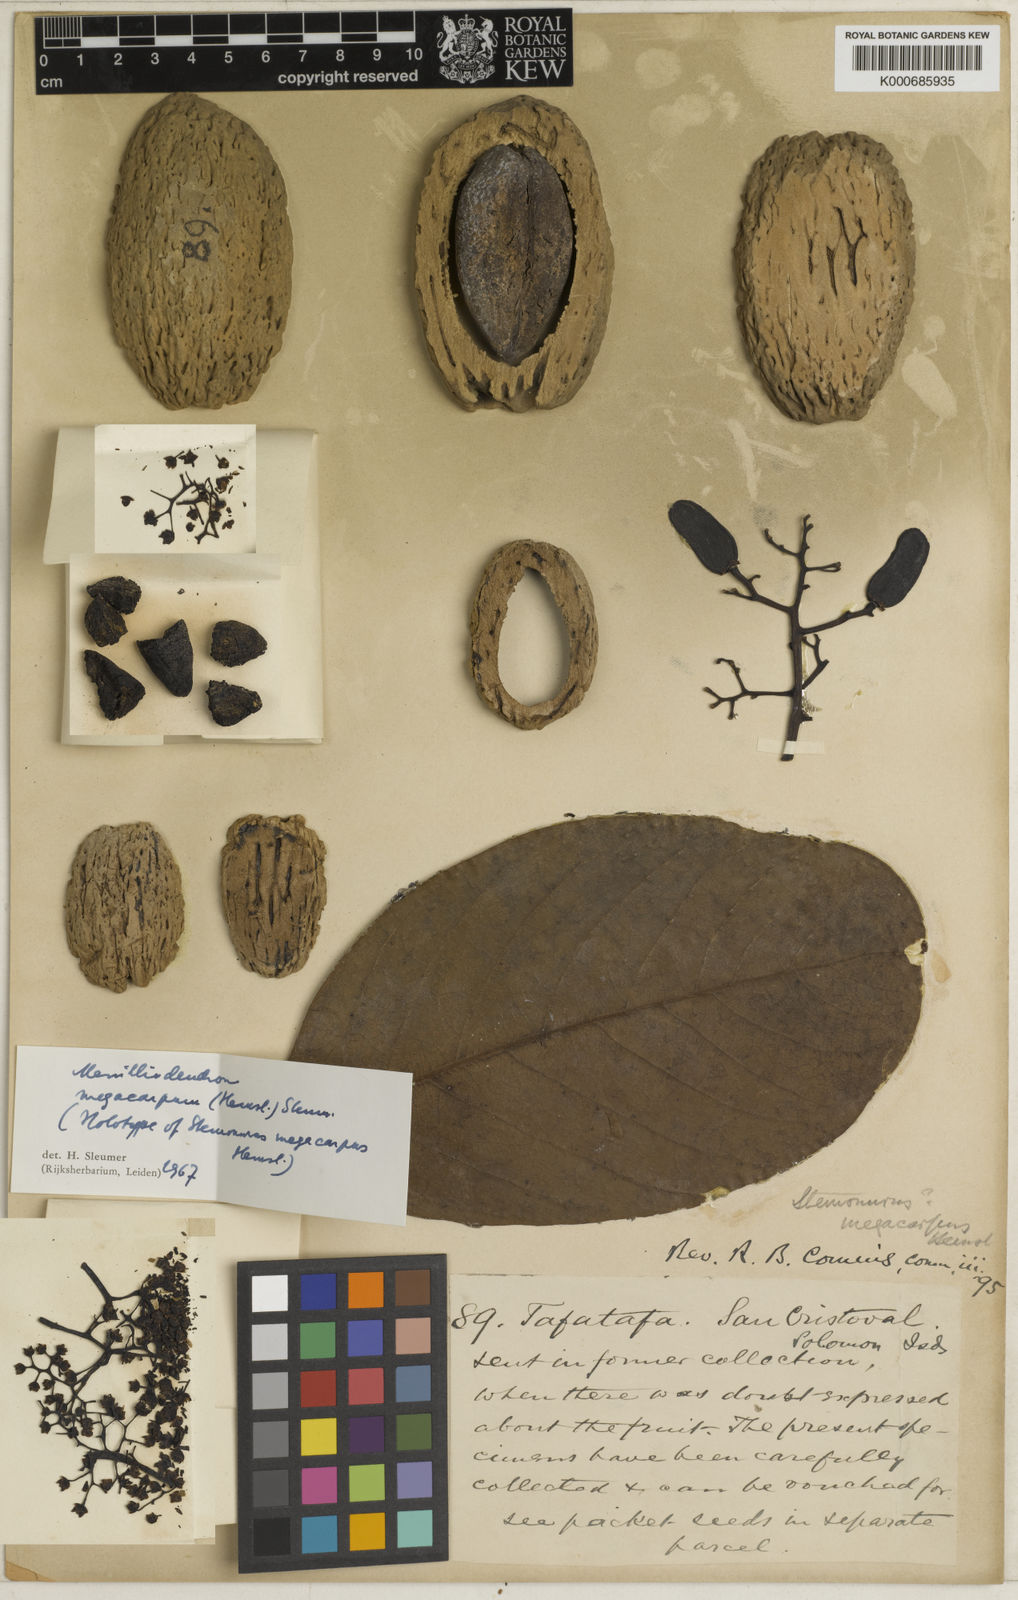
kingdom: Plantae
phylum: Tracheophyta
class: Magnoliopsida
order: Icacinales
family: Icacinaceae
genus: Merrilliodendron
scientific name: Merrilliodendron megacarpum
